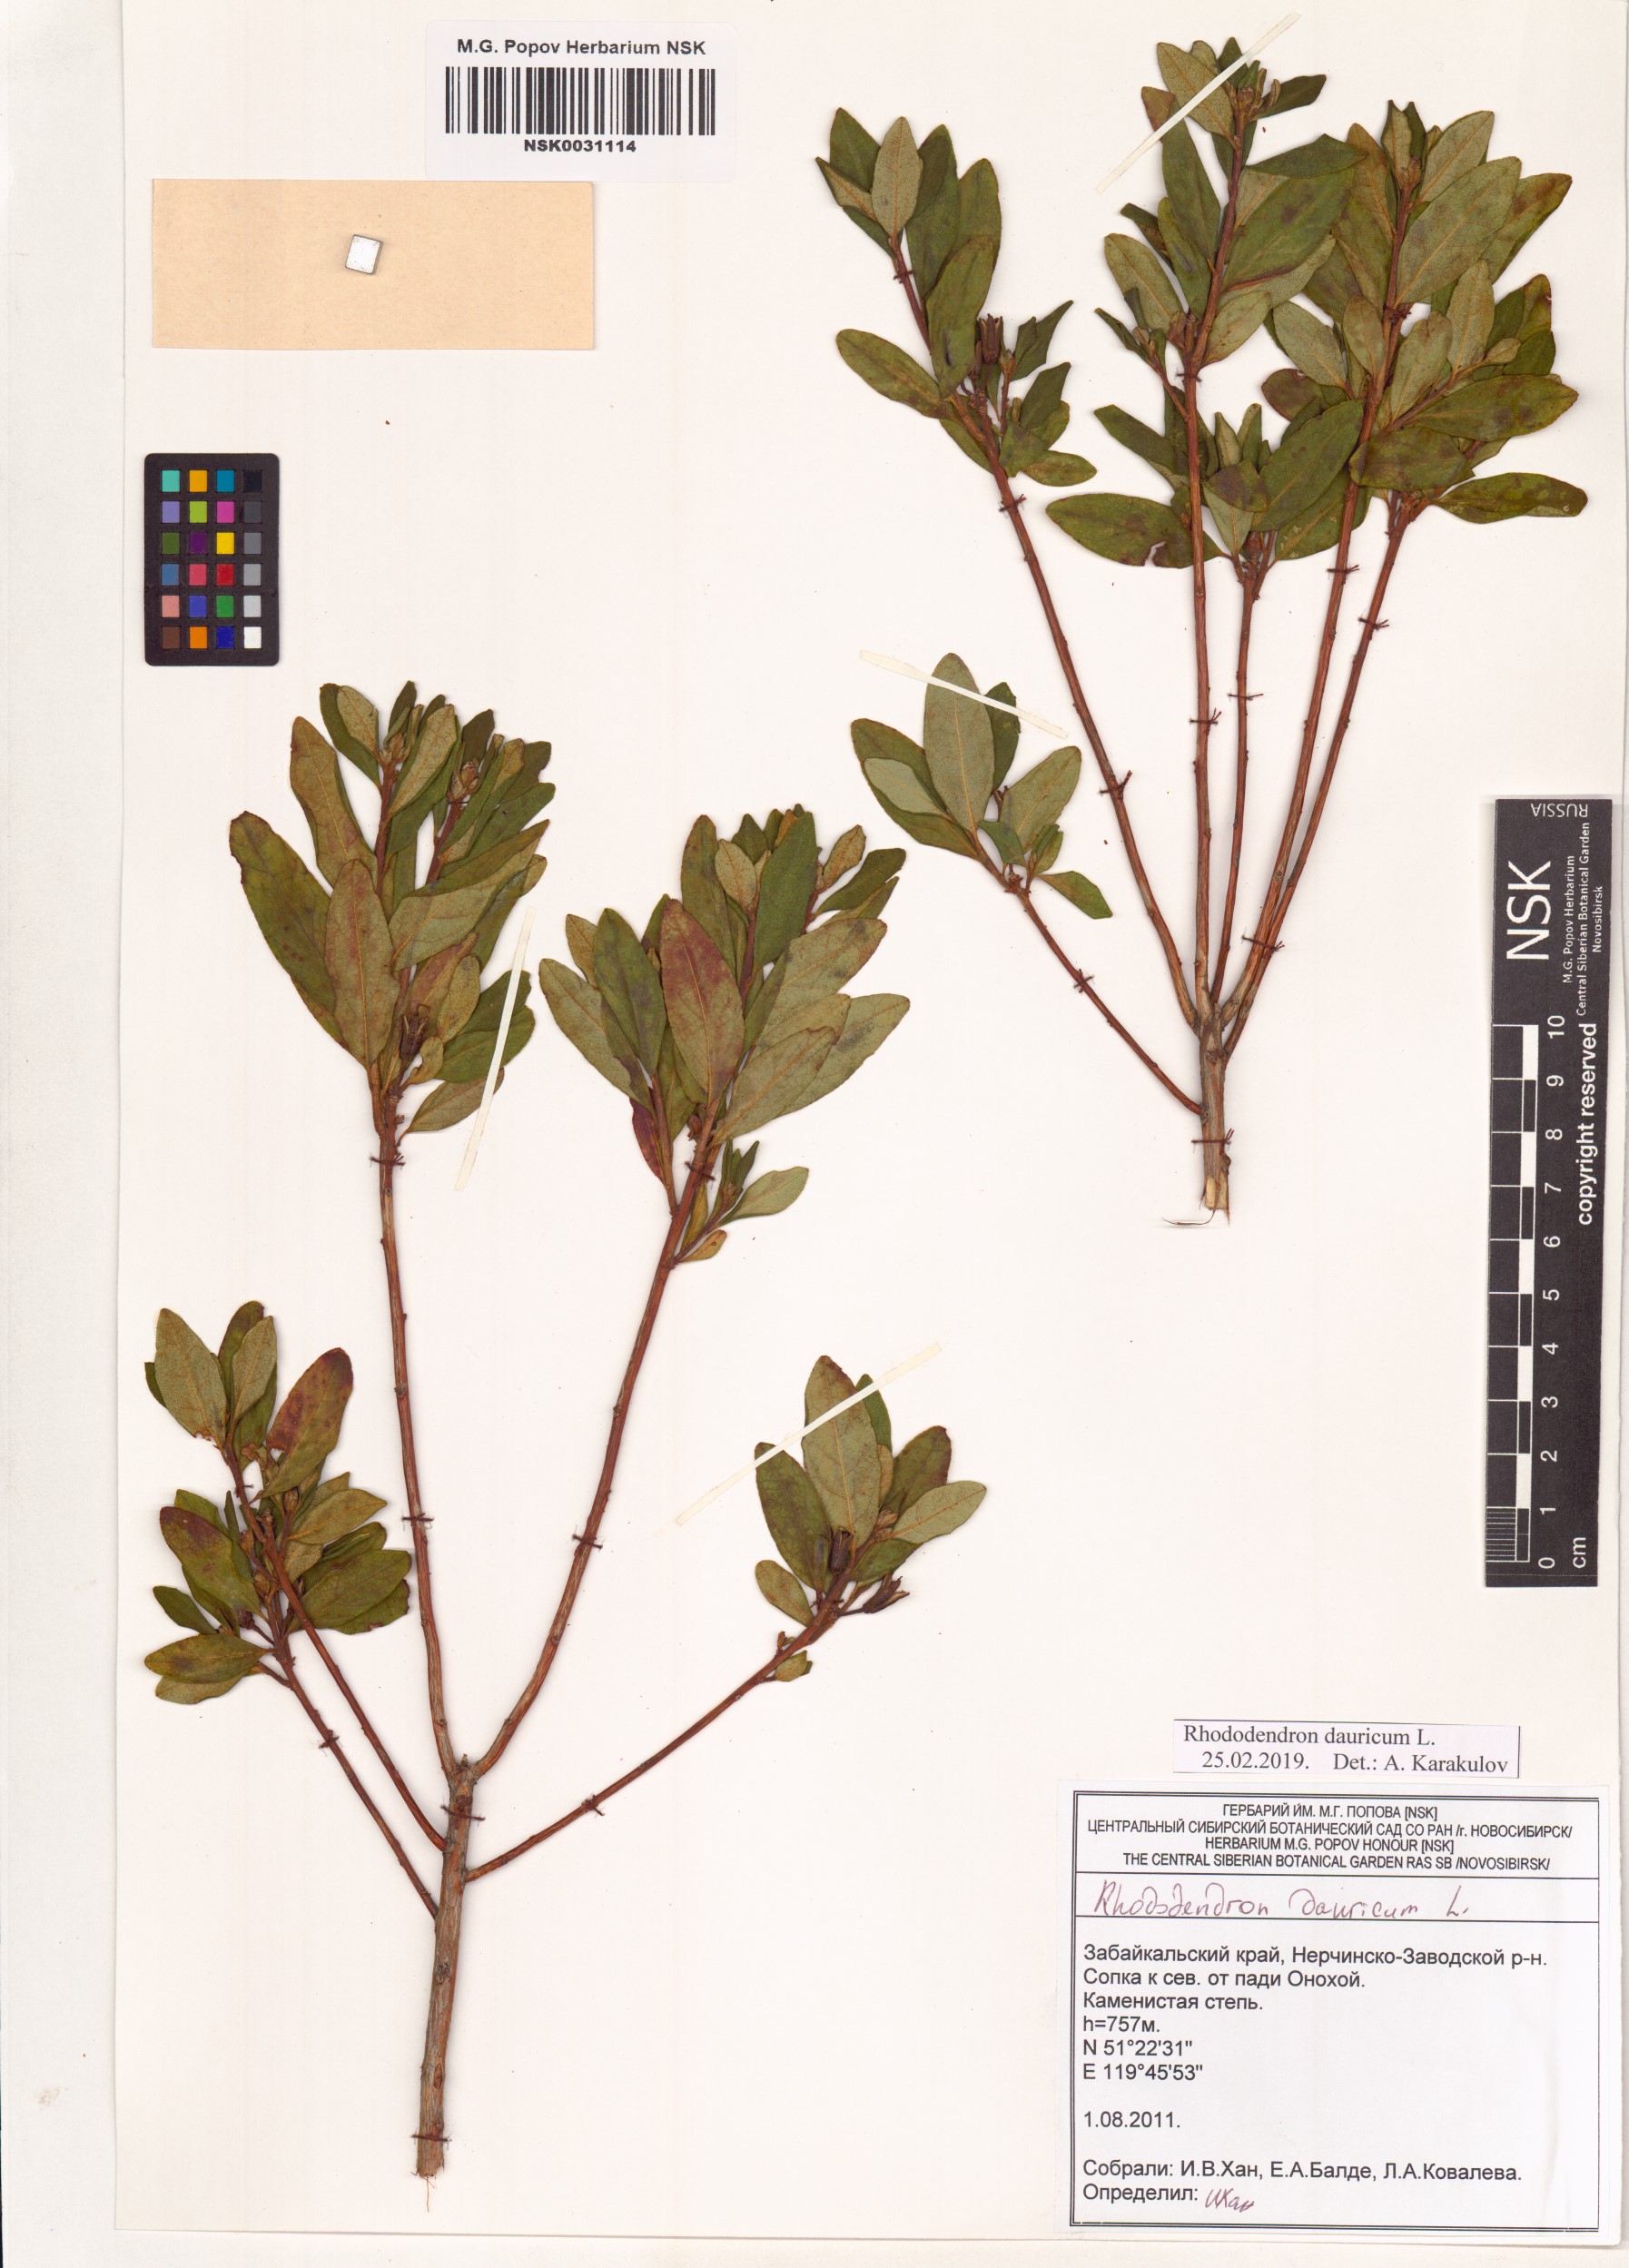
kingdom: Plantae
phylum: Tracheophyta
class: Magnoliopsida
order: Ericales
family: Ericaceae
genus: Rhododendron
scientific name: Rhododendron dauricum
